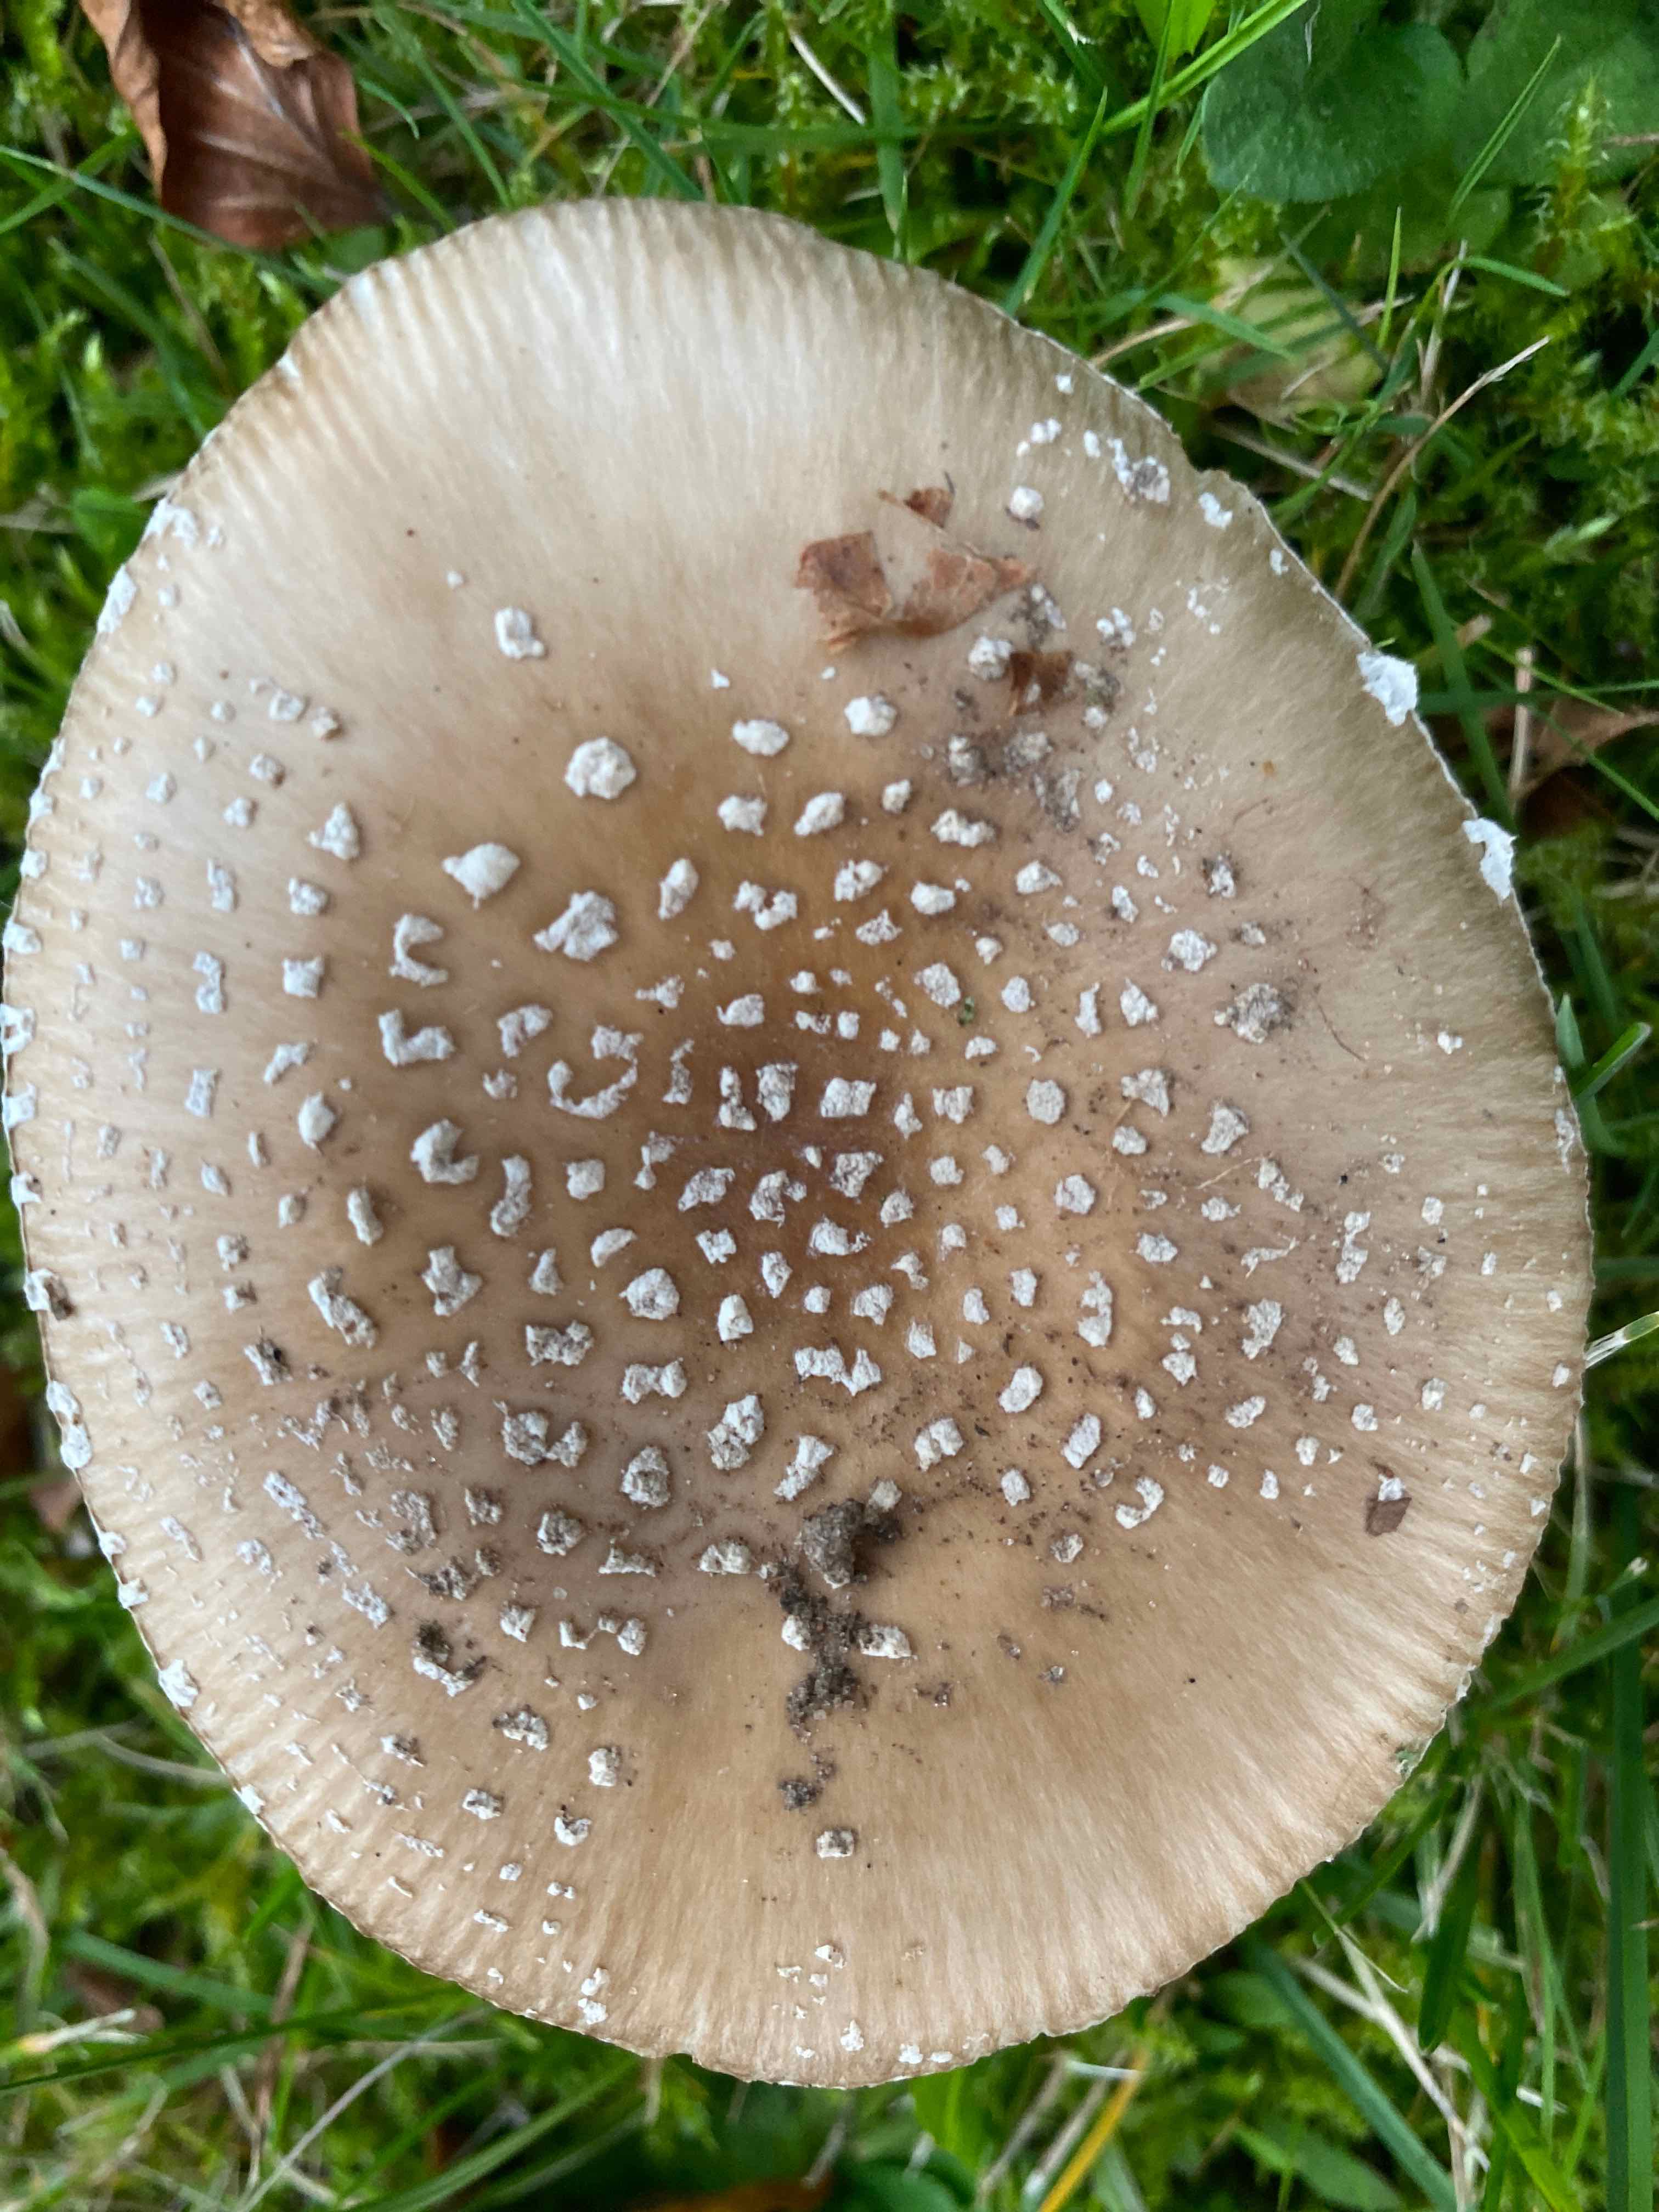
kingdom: Fungi
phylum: Basidiomycota
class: Agaricomycetes
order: Agaricales
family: Amanitaceae
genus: Amanita
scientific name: Amanita pantherina
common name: panter-fluesvamp
